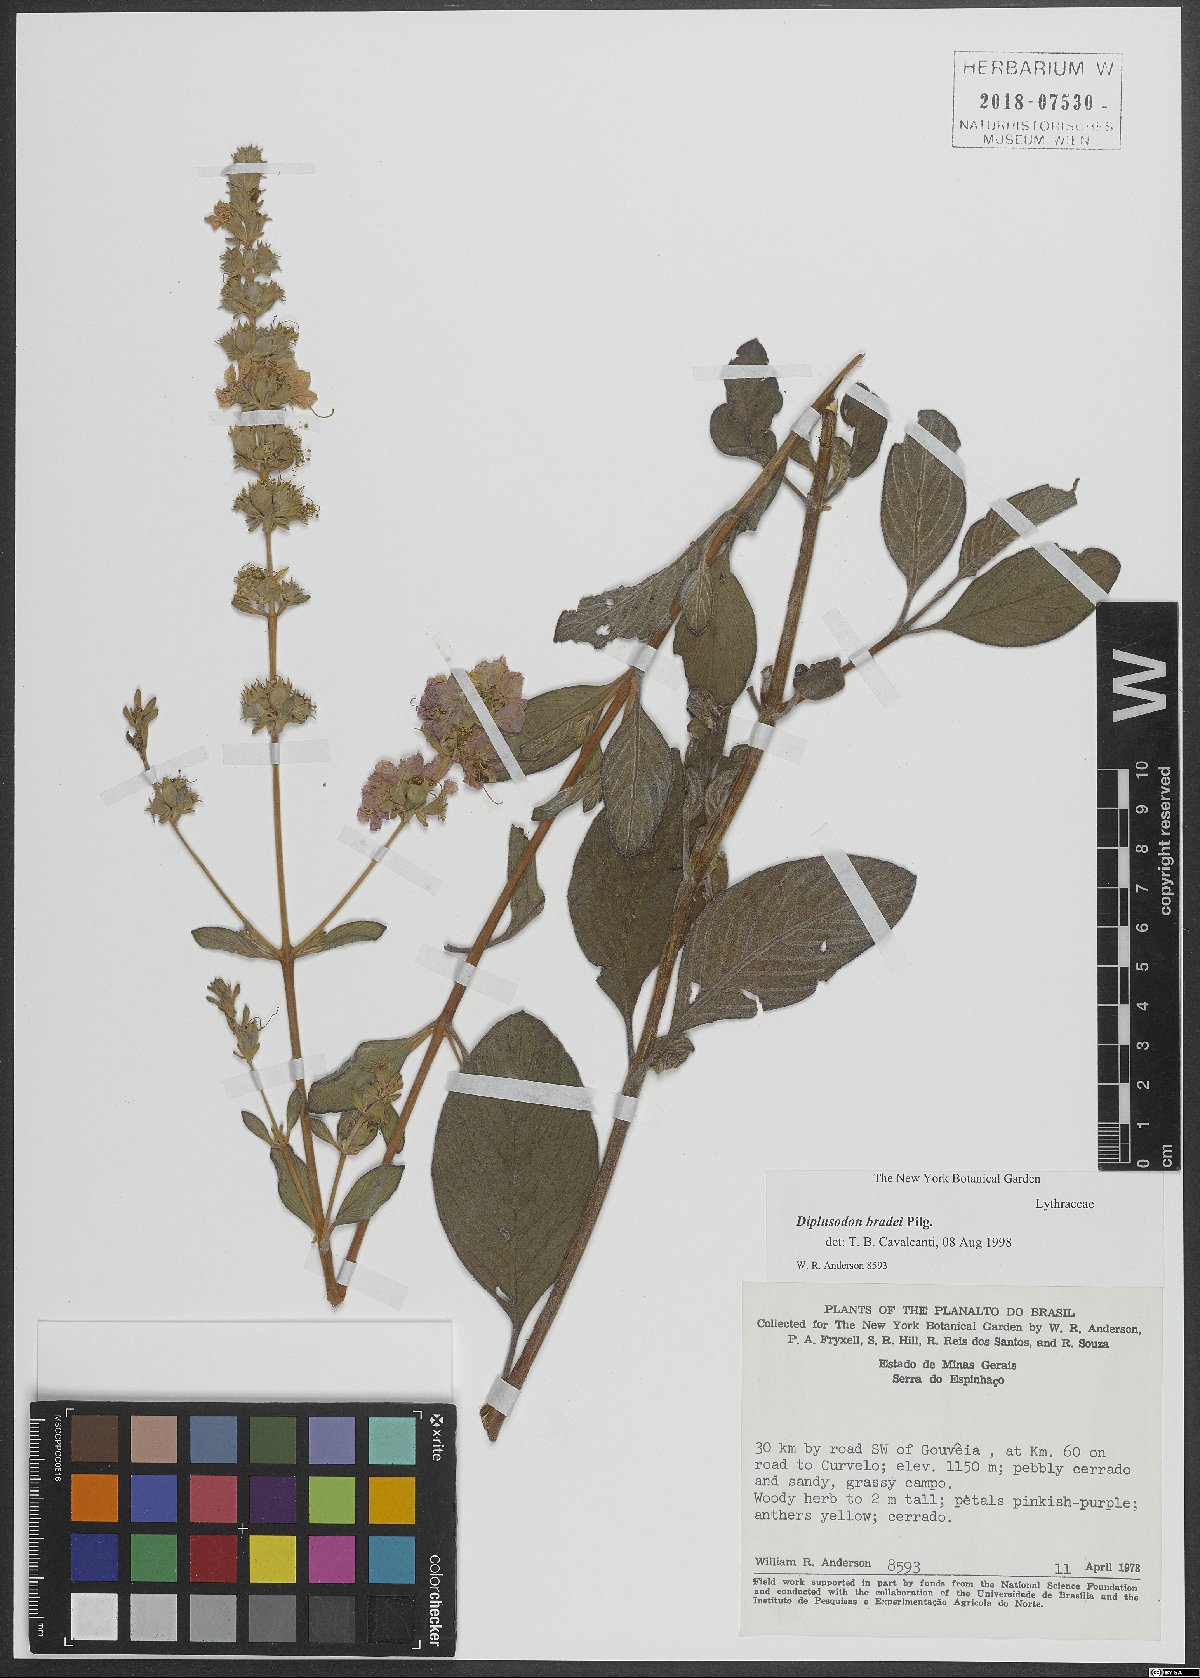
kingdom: Plantae
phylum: Tracheophyta
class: Magnoliopsida
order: Myrtales
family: Lythraceae
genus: Diplusodon
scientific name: Diplusodon
